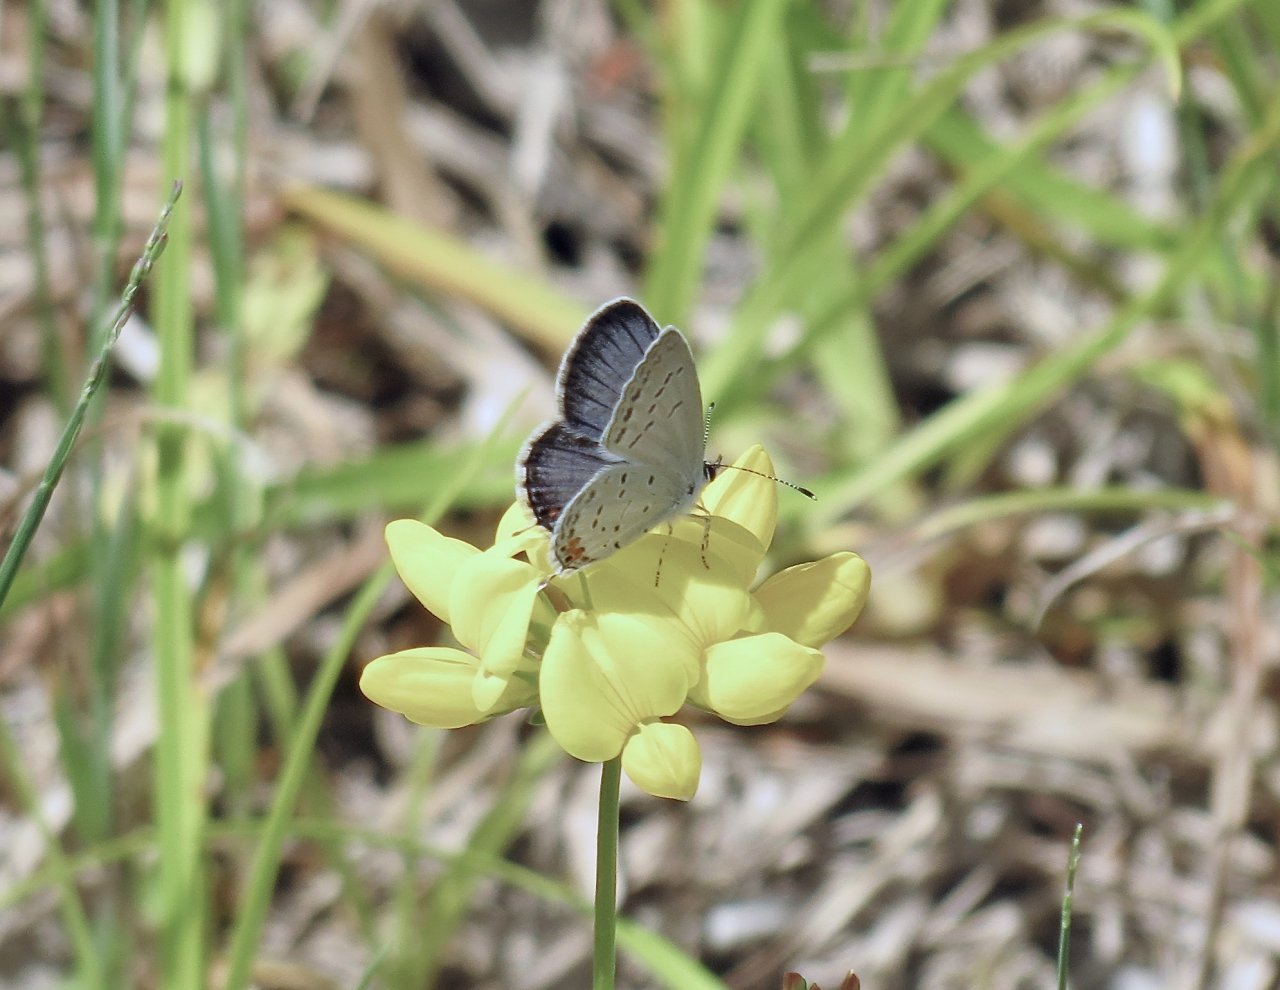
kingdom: Animalia
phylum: Arthropoda
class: Insecta
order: Lepidoptera
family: Lycaenidae
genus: Elkalyce
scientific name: Elkalyce comyntas
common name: Eastern Tailed-Blue
